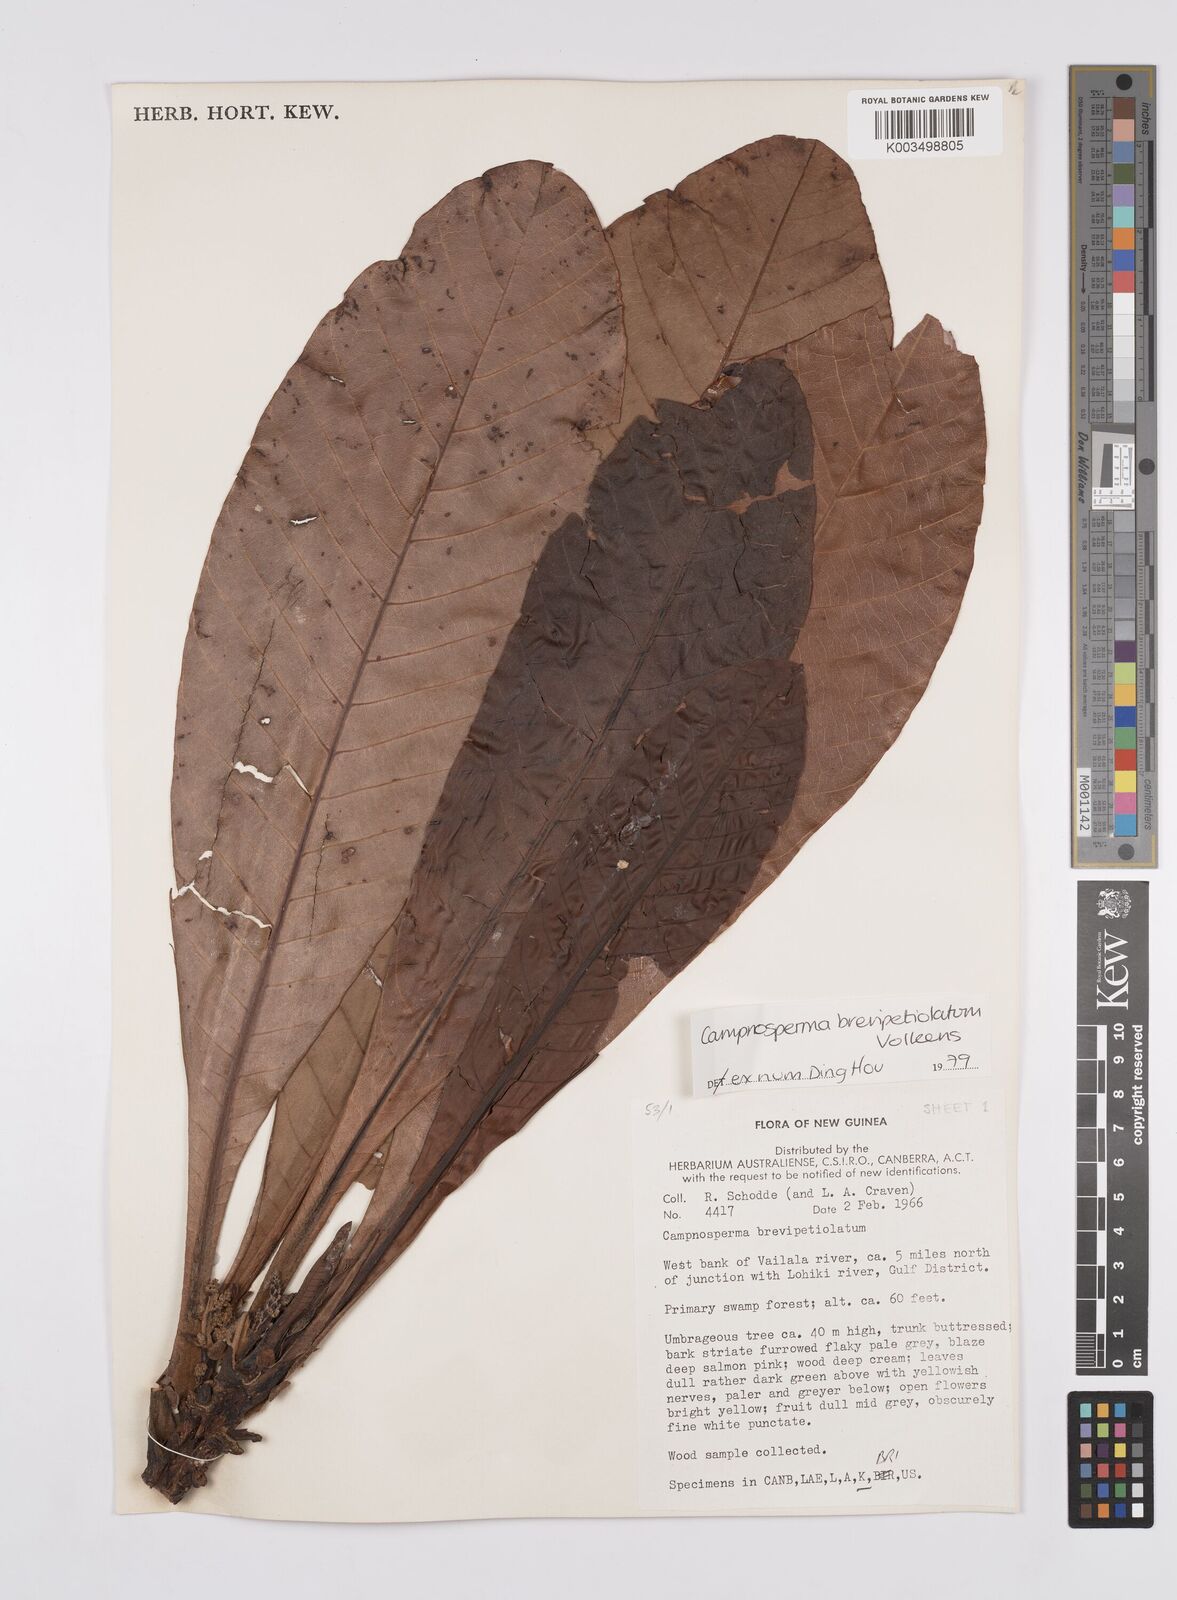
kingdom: Plantae
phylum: Tracheophyta
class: Magnoliopsida
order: Sapindales
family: Anacardiaceae
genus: Campnosperma
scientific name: Campnosperma brevipetiolatum
